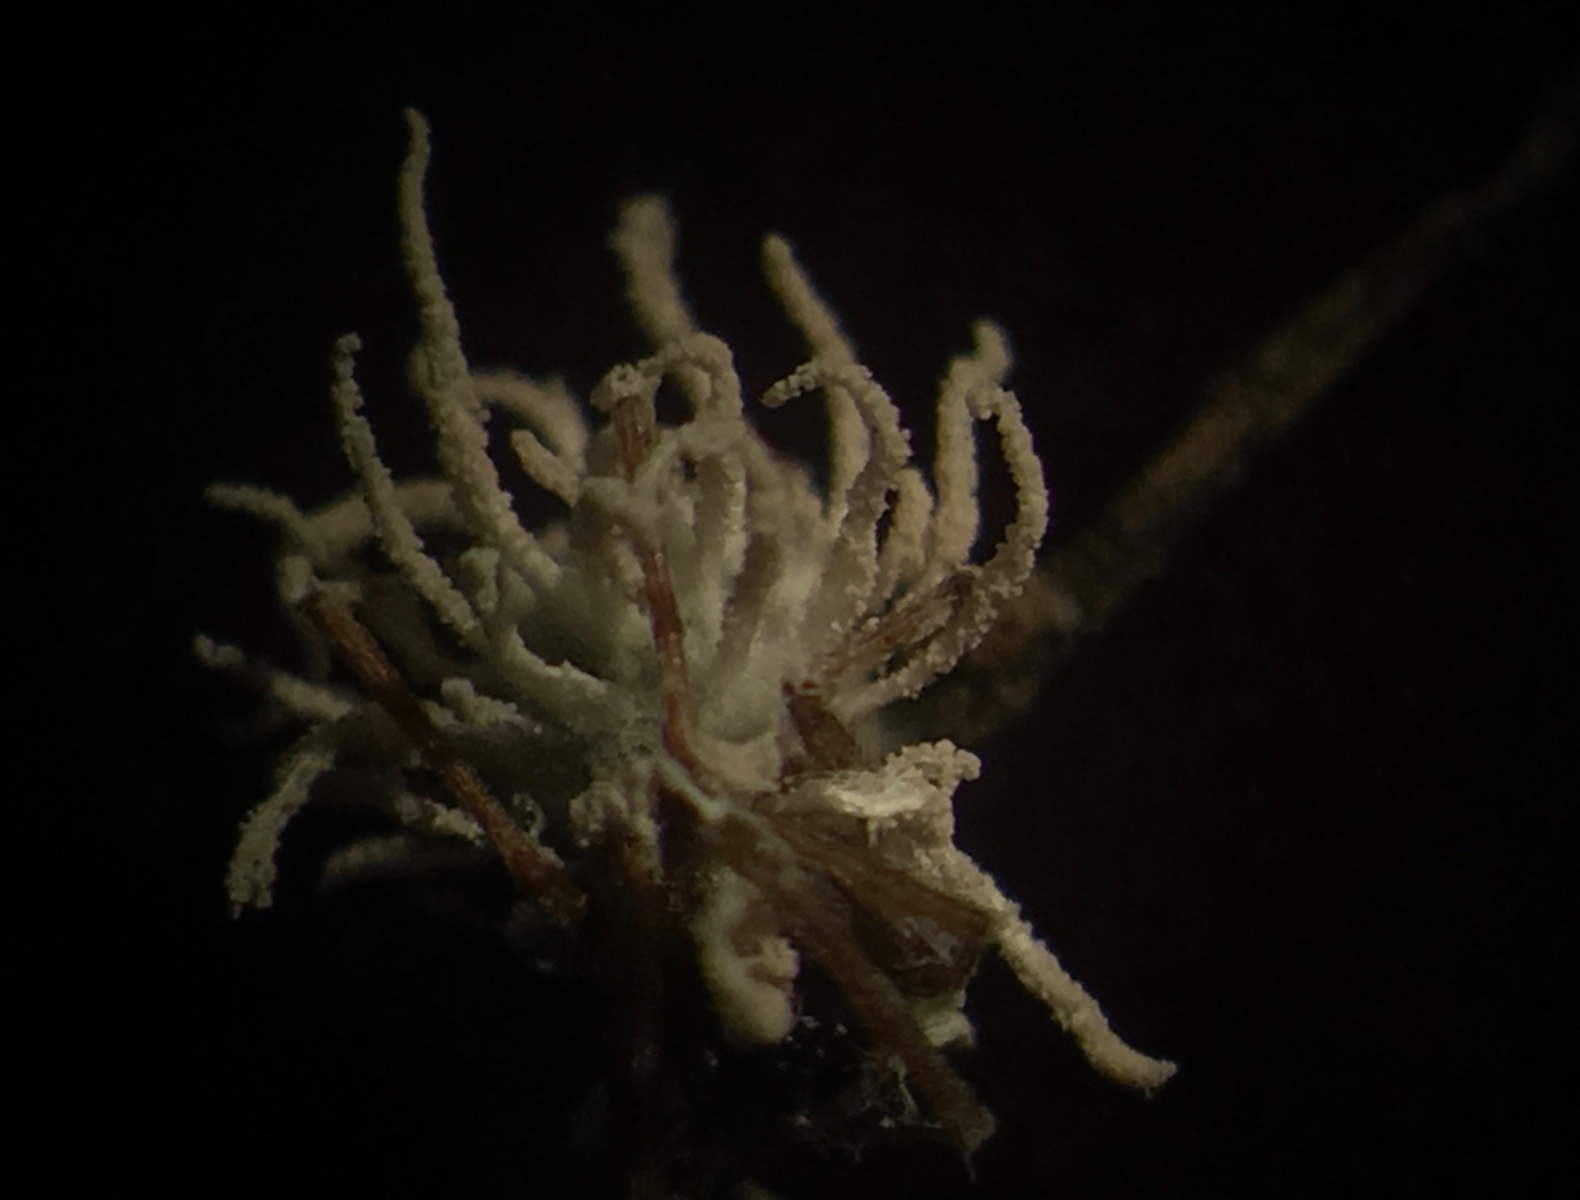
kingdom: Fungi
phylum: Ascomycota
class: Sordariomycetes
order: Hypocreales
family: Cordycipitaceae
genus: Gibellula
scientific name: Gibellula pulchra
